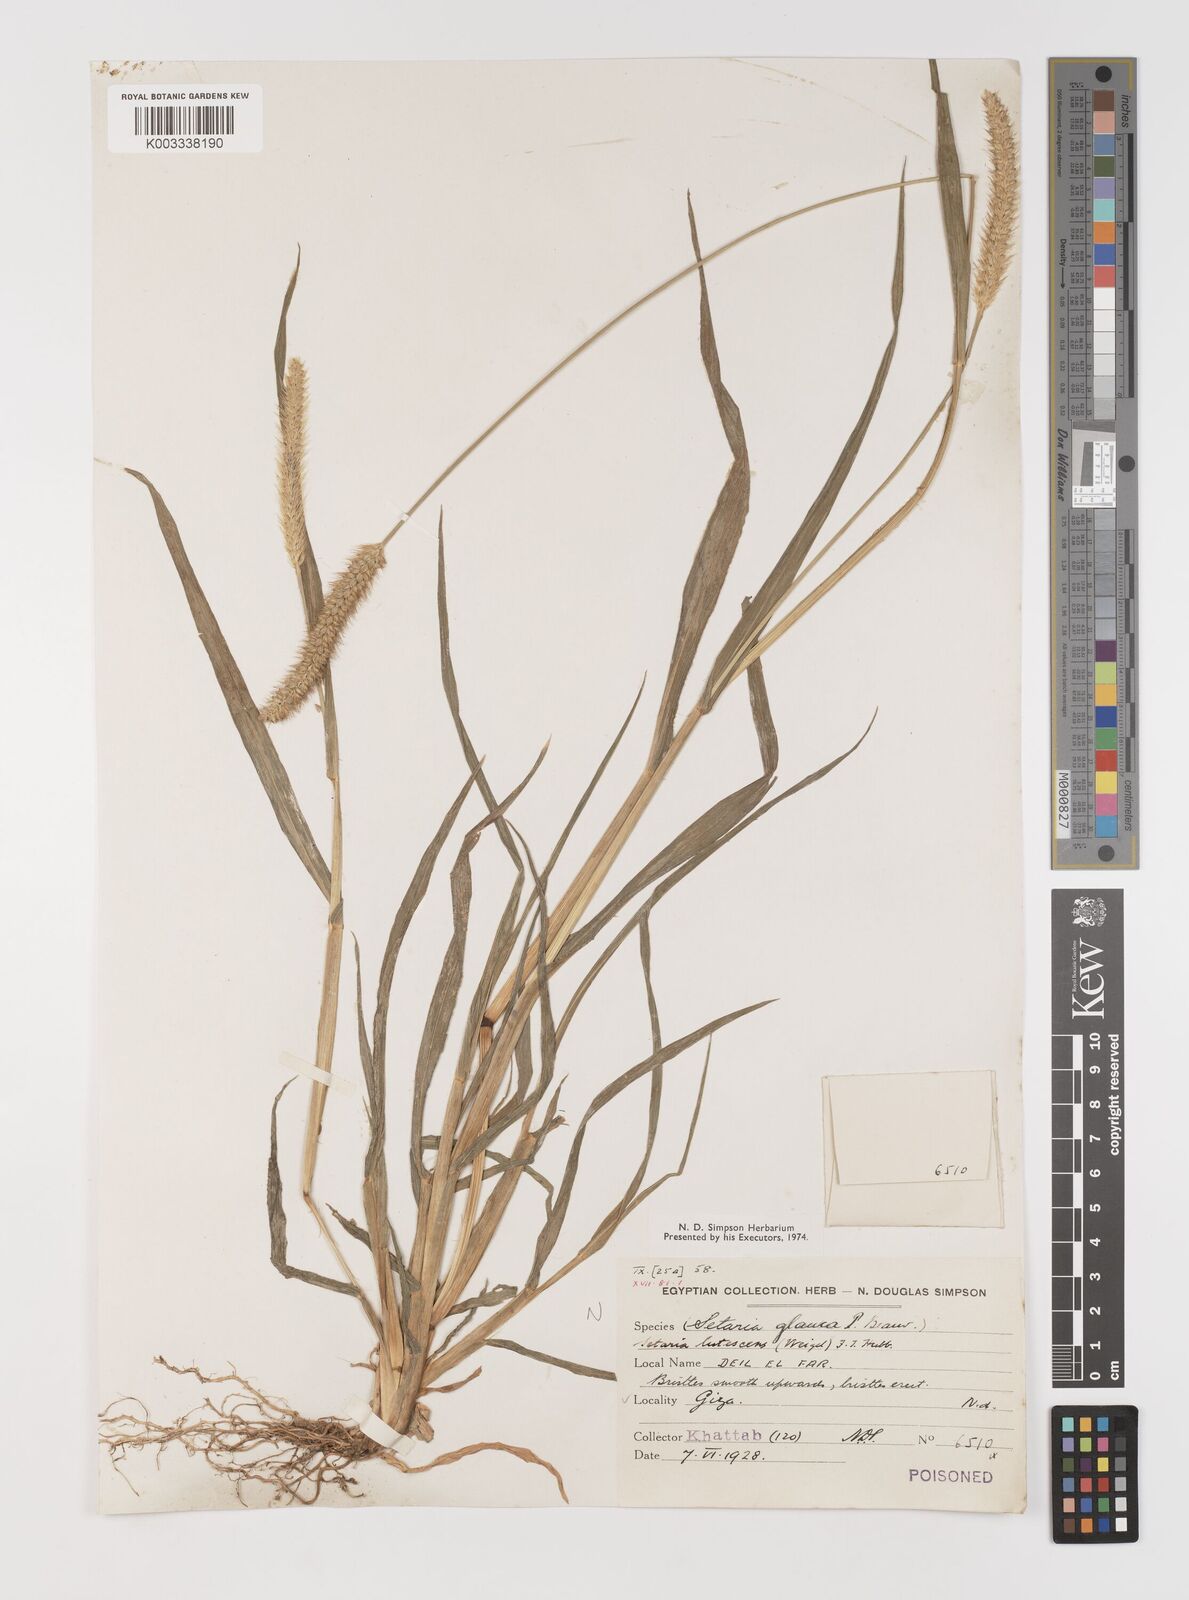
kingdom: Plantae
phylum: Tracheophyta
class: Liliopsida
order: Poales
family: Poaceae
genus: Setaria
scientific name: Setaria pumila
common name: Yellow bristle-grass
